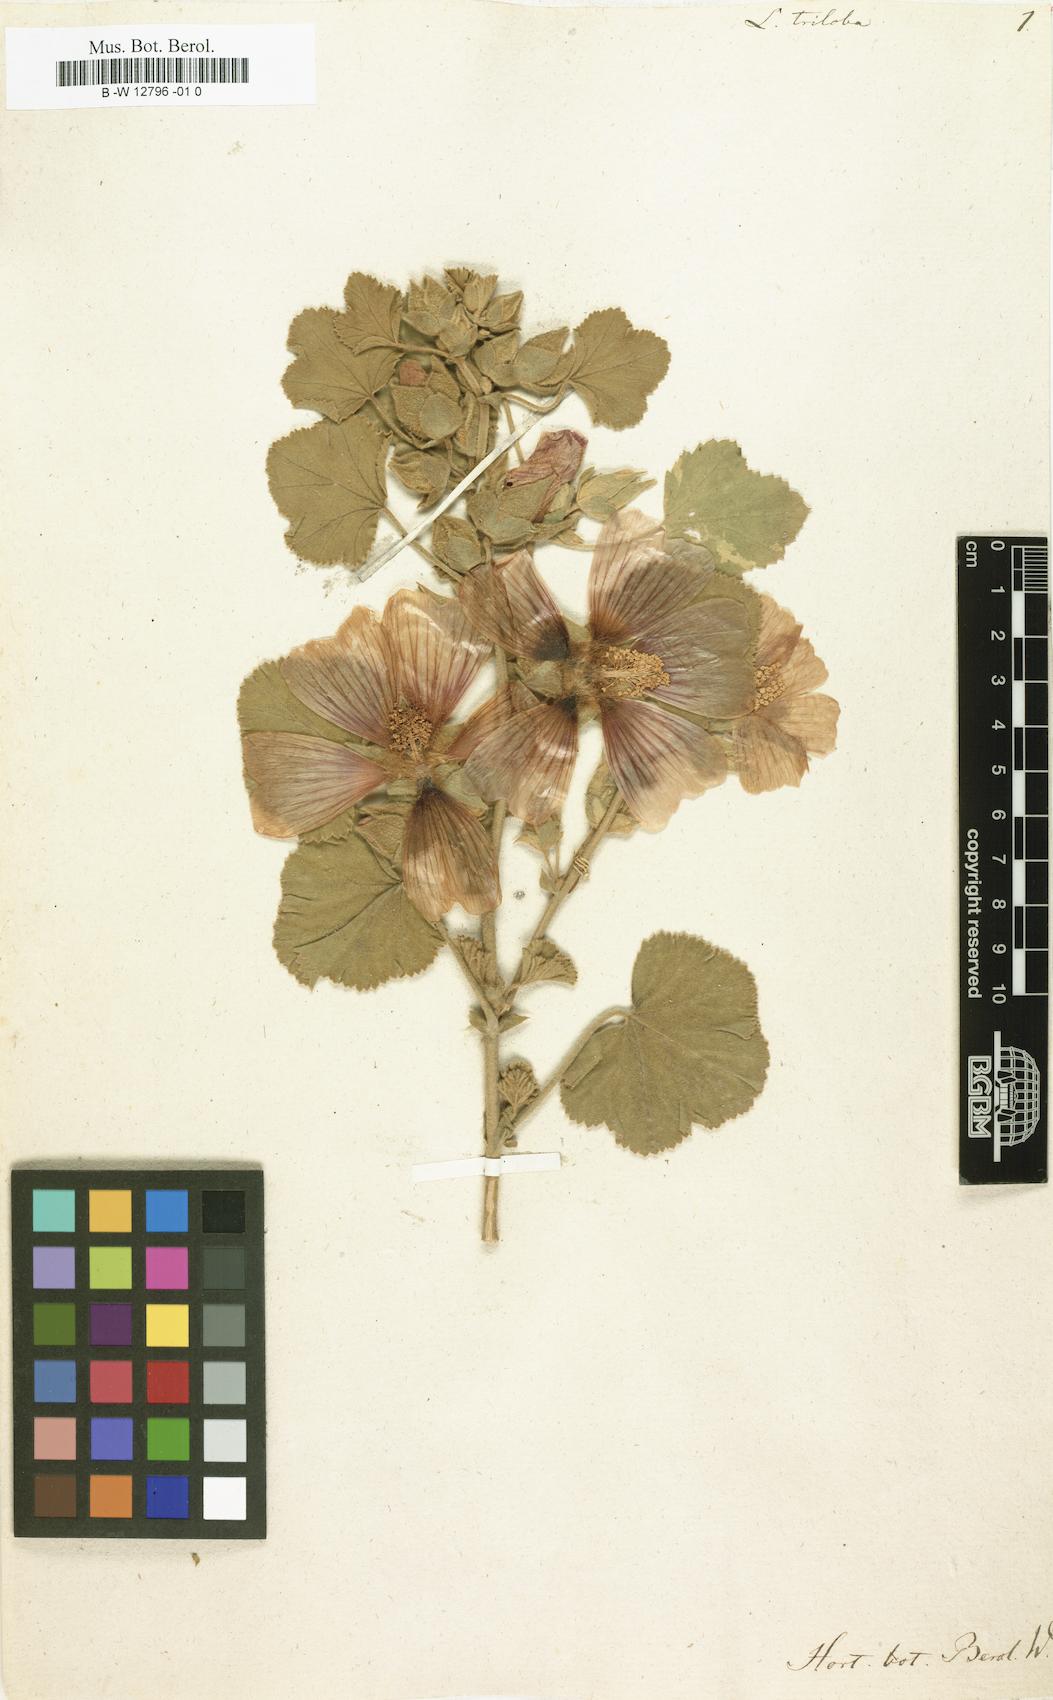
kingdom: Plantae
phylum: Tracheophyta
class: Magnoliopsida
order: Malvales
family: Malvaceae
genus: Malva
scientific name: Malva
